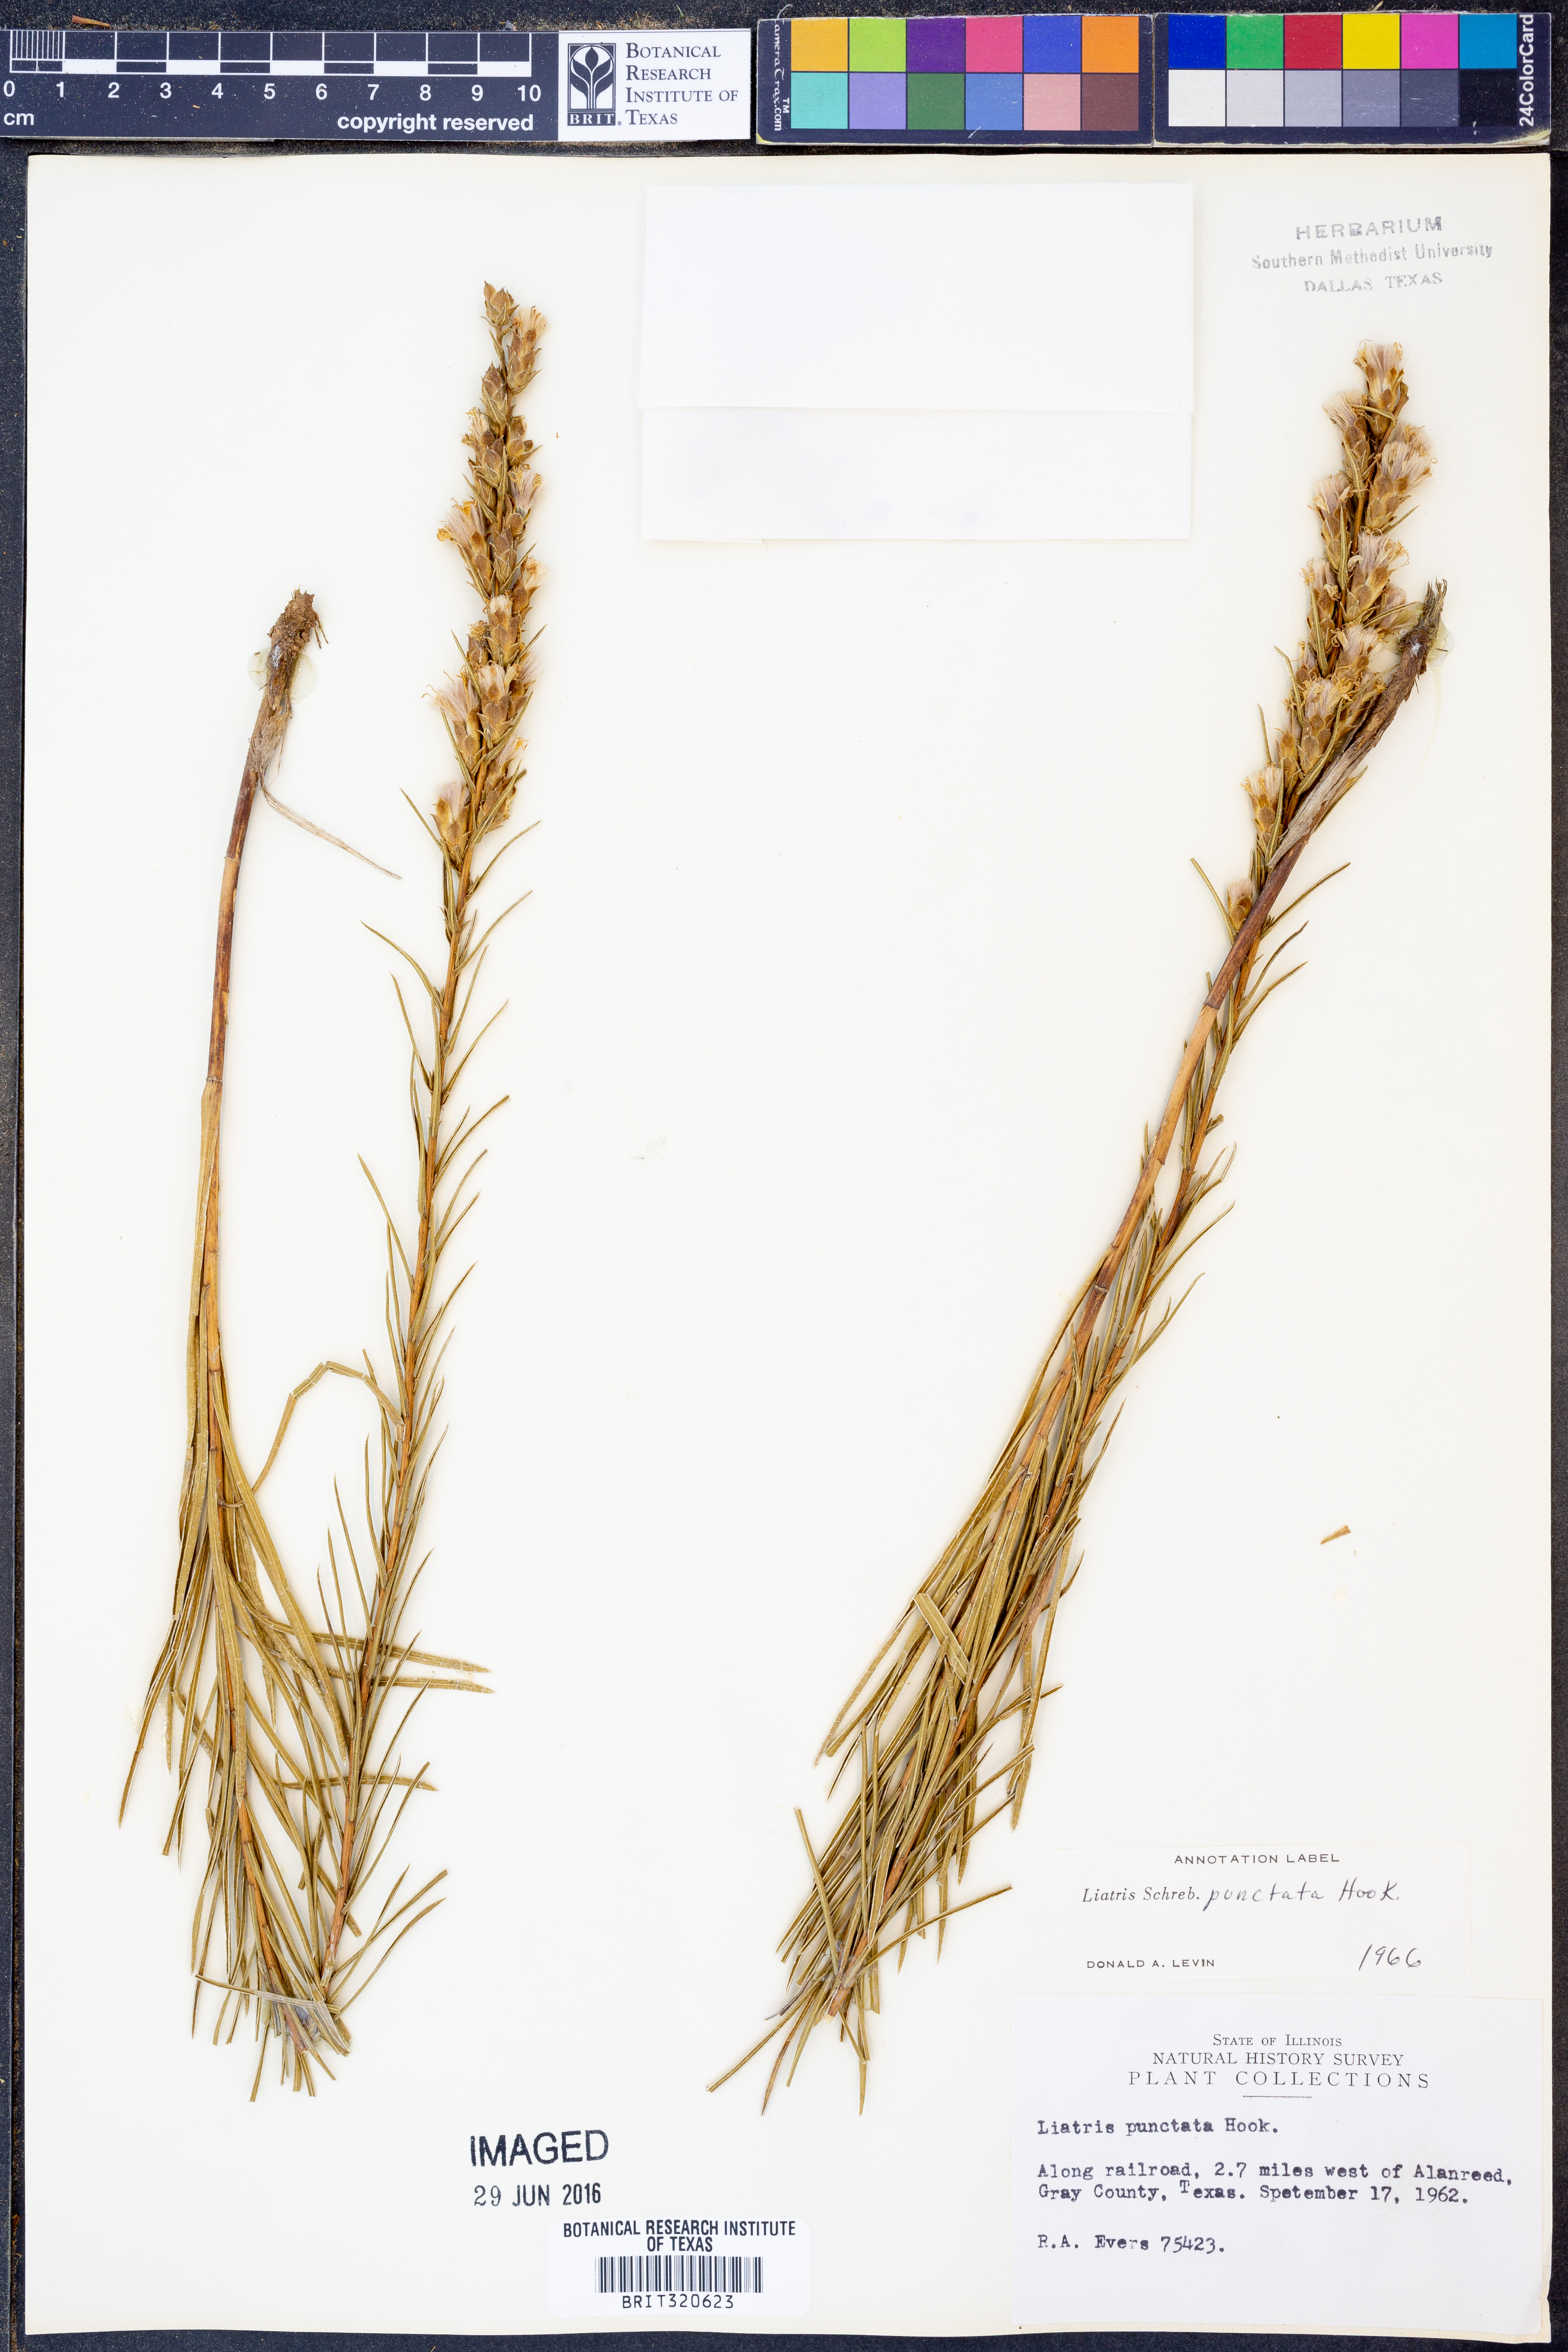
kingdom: Plantae
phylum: Tracheophyta
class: Magnoliopsida
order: Asterales
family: Asteraceae
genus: Liatris
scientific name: Liatris punctata
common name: Dotted gayfeather
